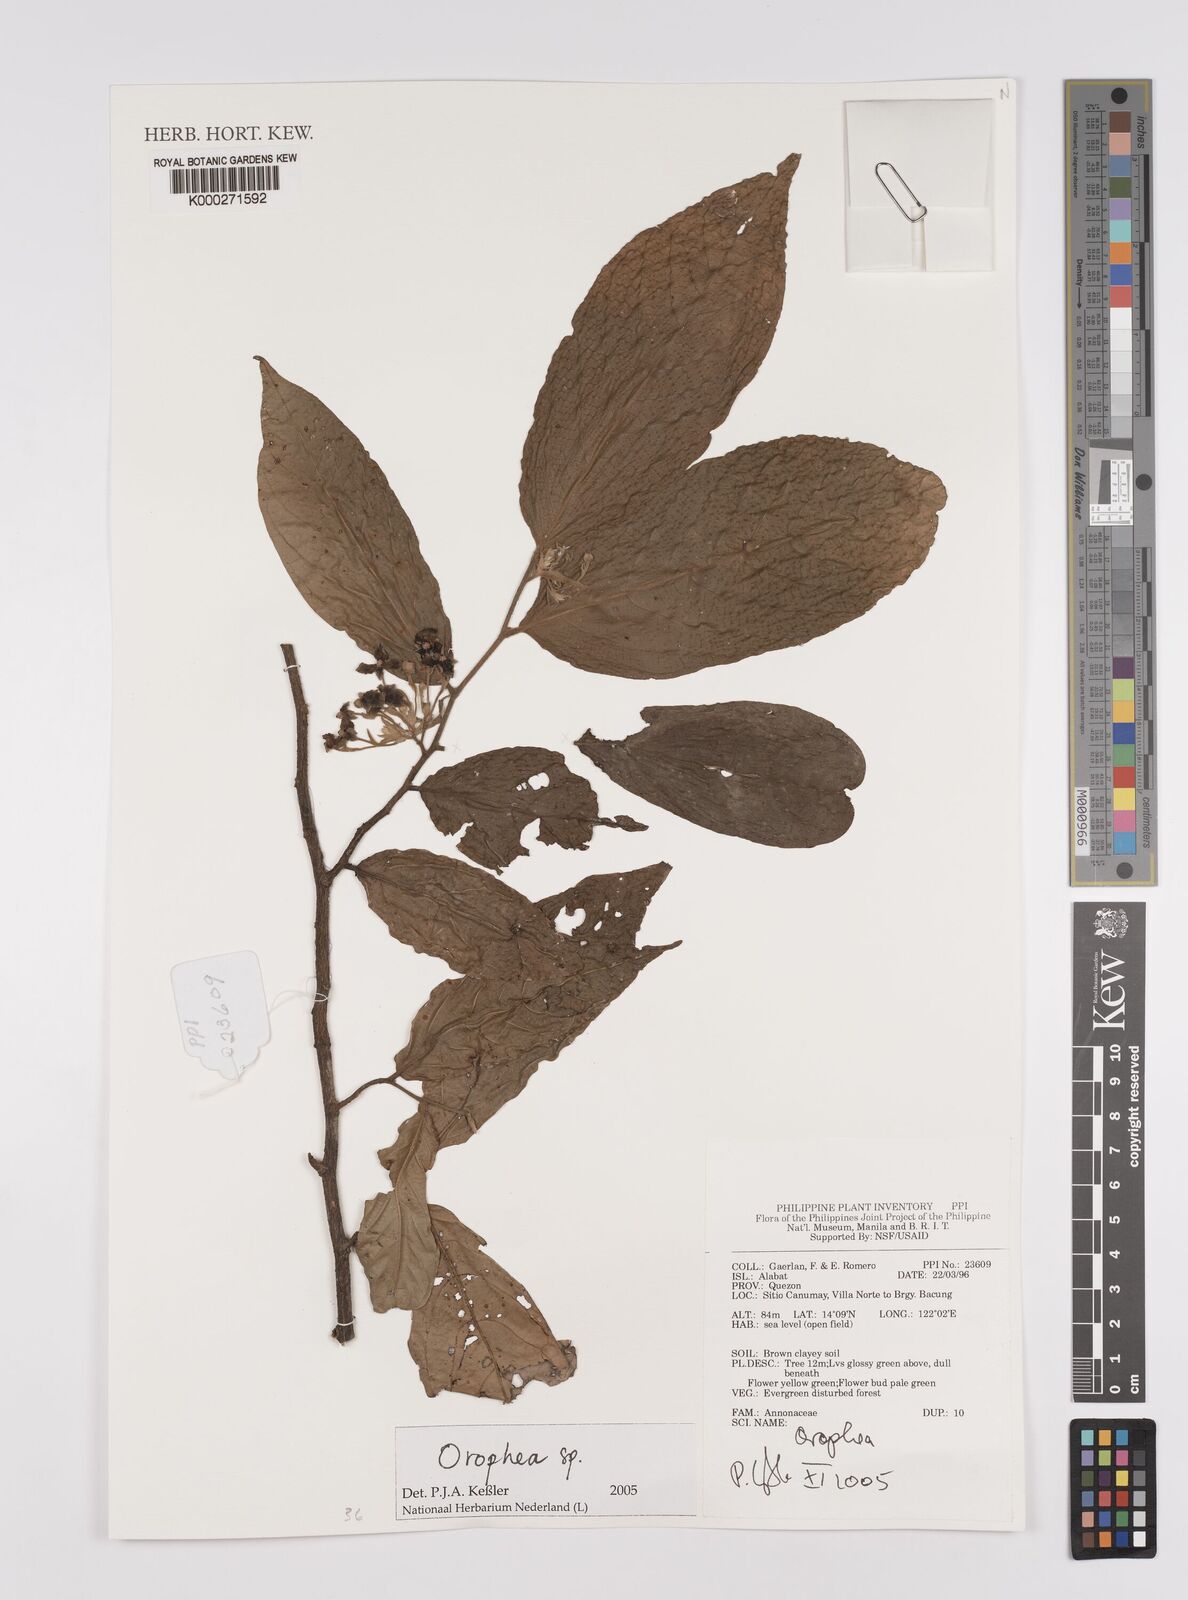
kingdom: Plantae
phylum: Tracheophyta
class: Magnoliopsida
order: Magnoliales
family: Annonaceae
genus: Orophea
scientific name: Orophea
